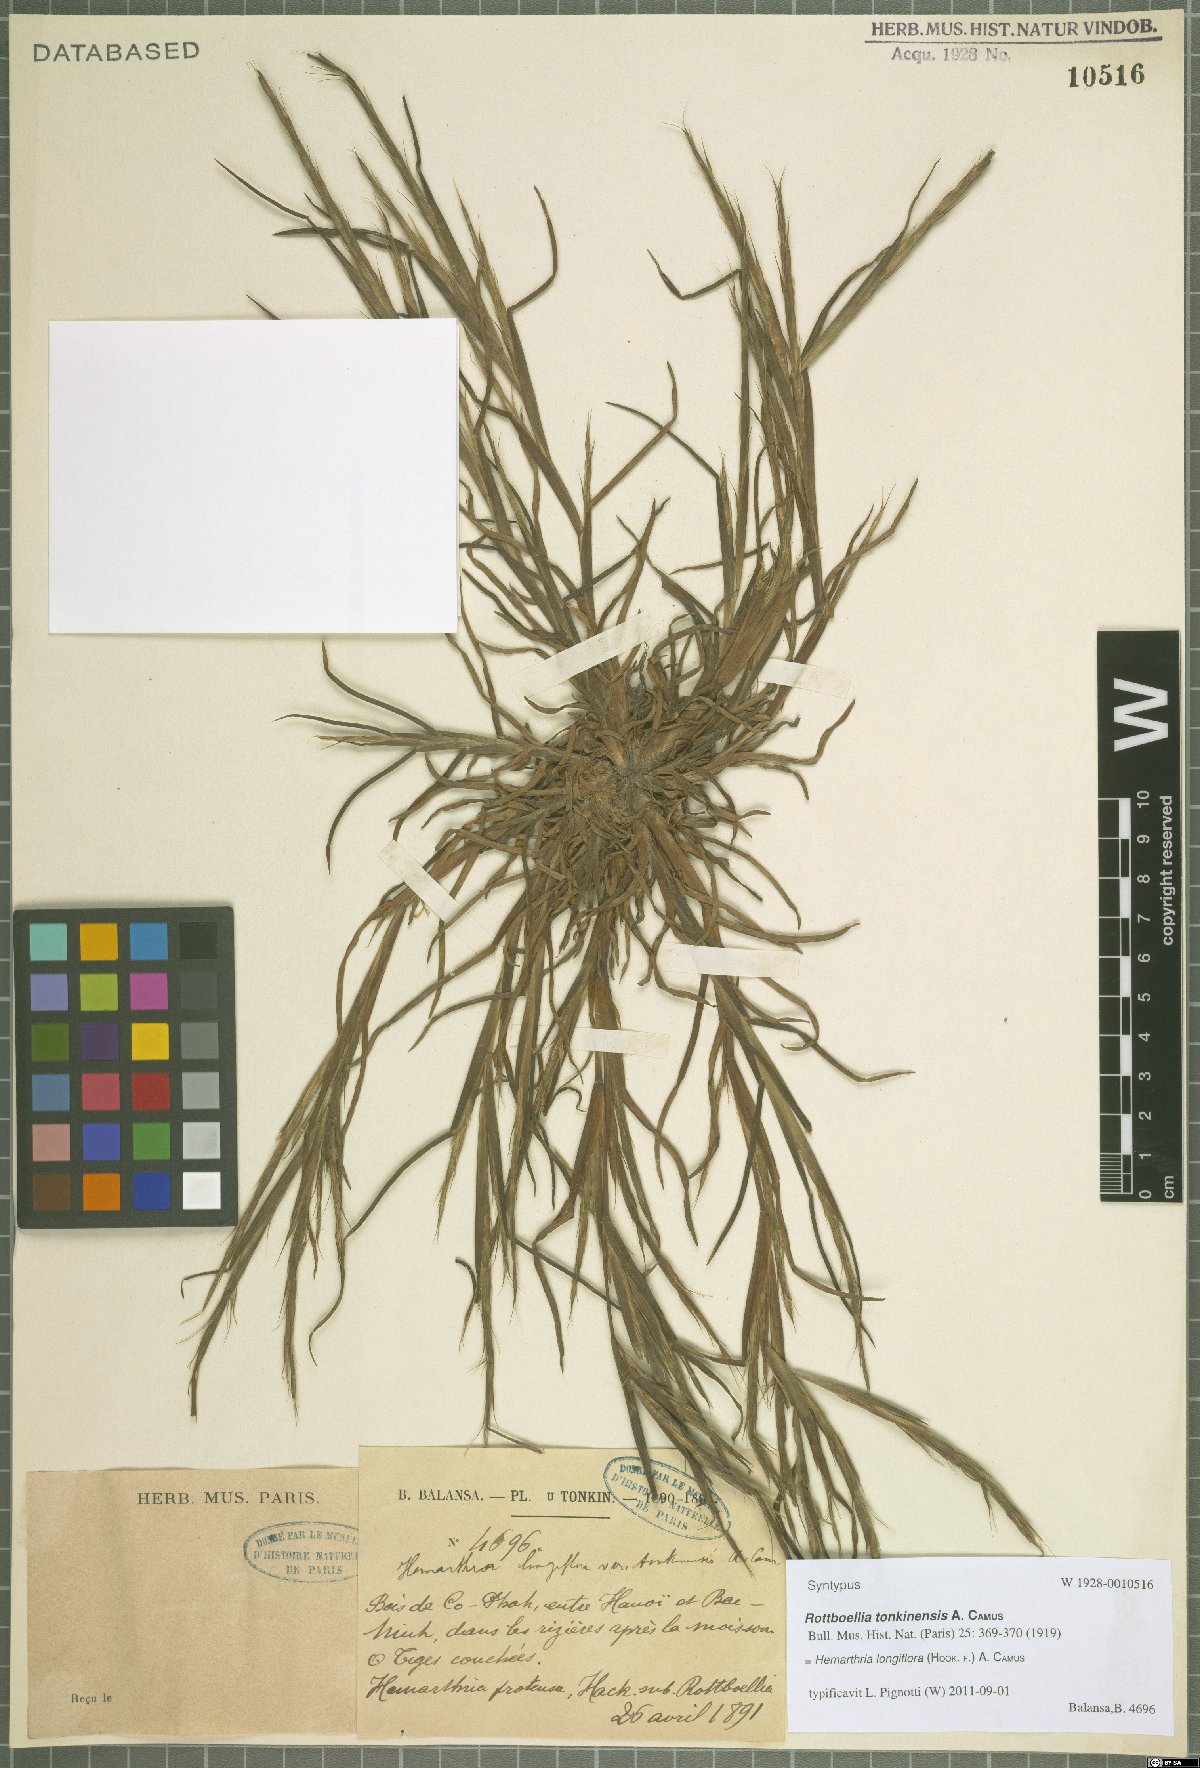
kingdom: Plantae
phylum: Tracheophyta
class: Liliopsida
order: Poales
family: Poaceae
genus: Hemarthria
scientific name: Hemarthria longiflora
